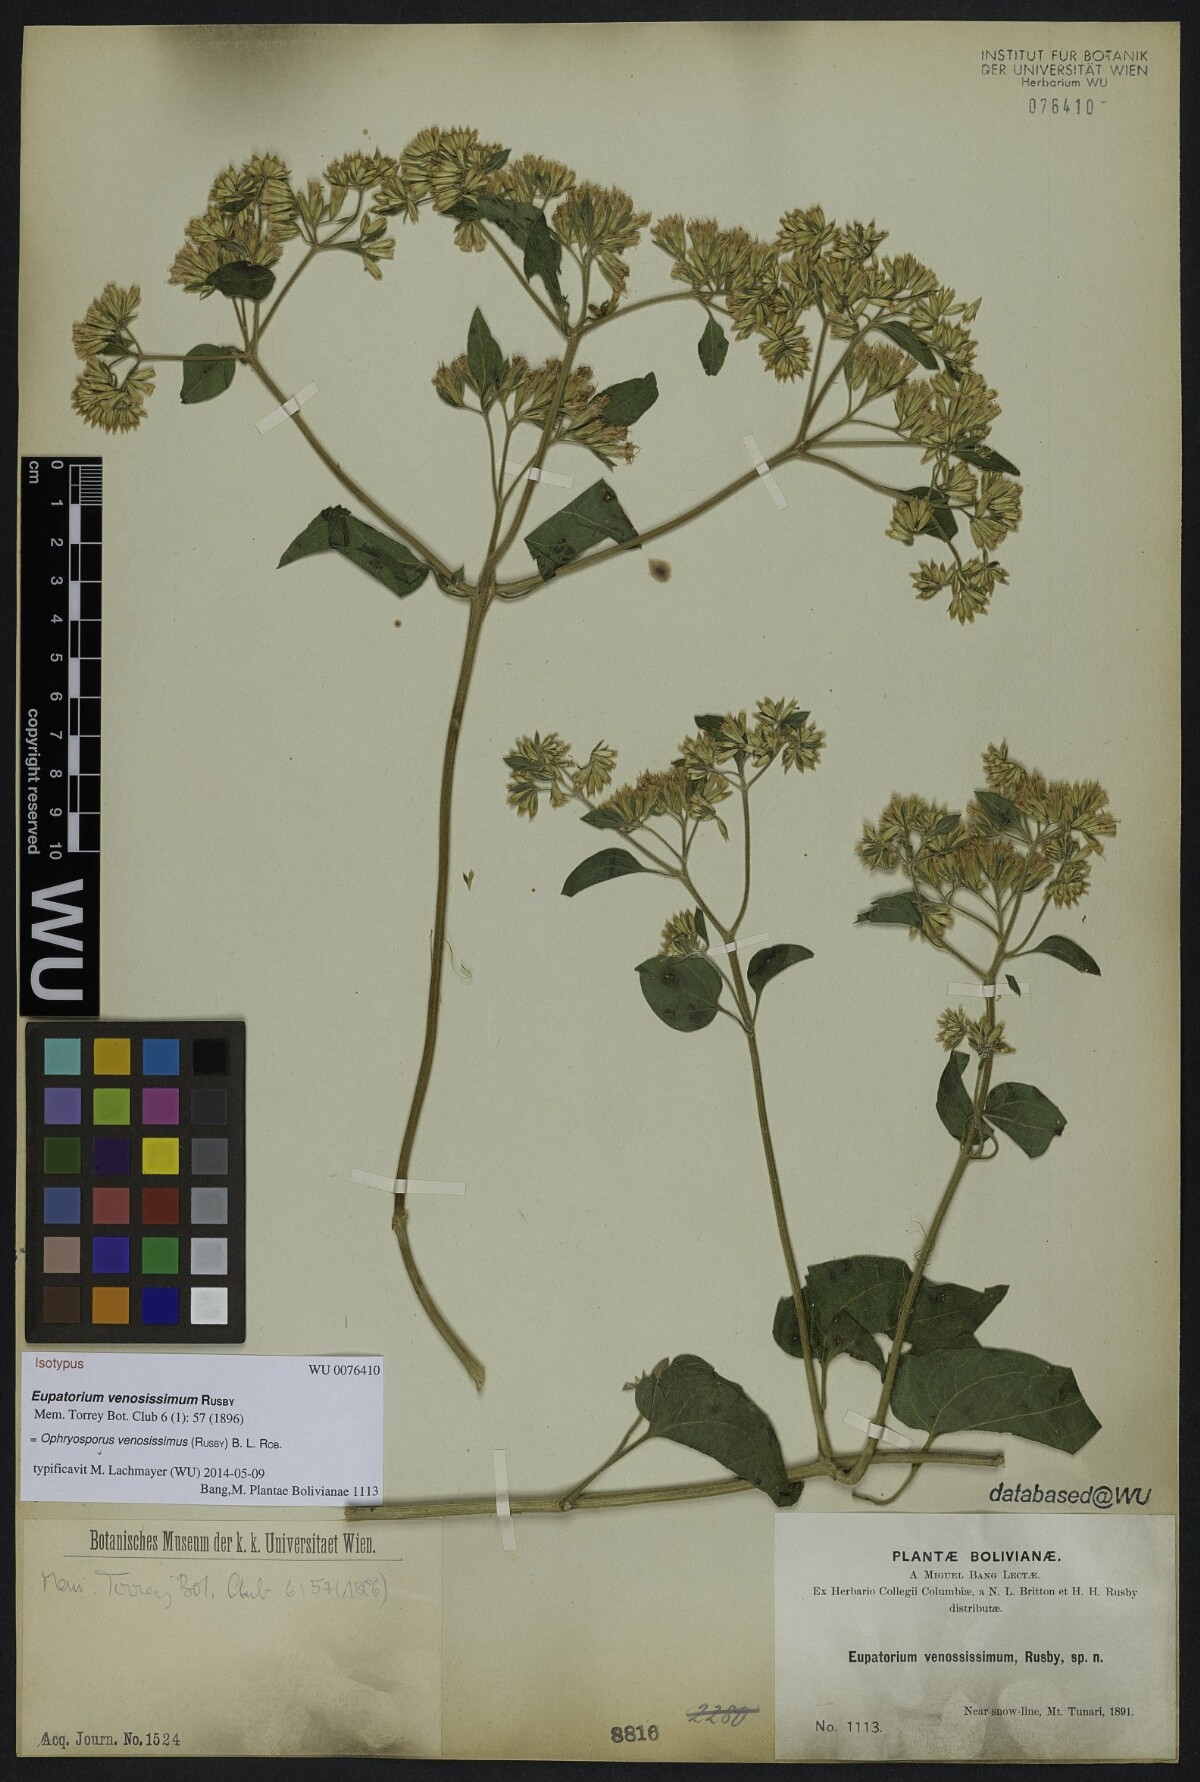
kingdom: Plantae
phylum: Tracheophyta
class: Magnoliopsida
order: Asterales
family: Asteraceae
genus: Ophryosporus
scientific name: Ophryosporus venosissimus
